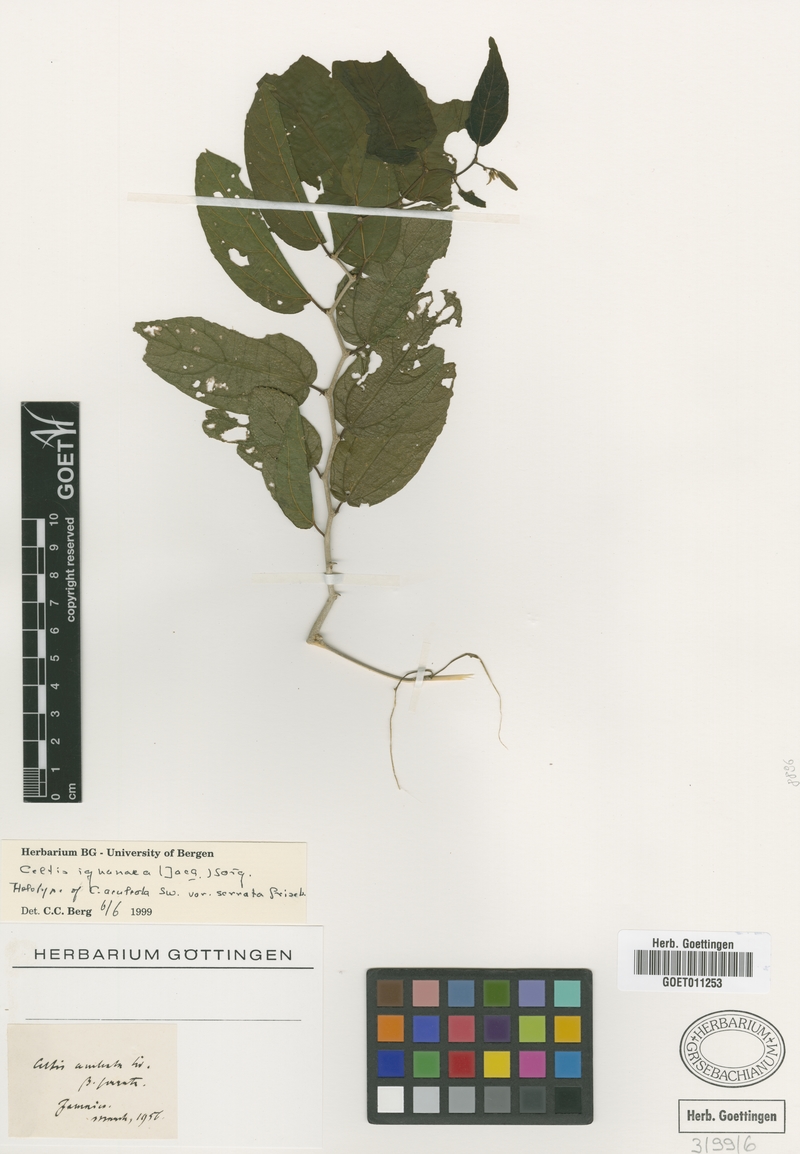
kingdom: Plantae
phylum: Tracheophyta
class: Magnoliopsida
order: Rosales
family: Cannabaceae
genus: Celtis
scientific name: Celtis iguanaea
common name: Iguana hackberry
